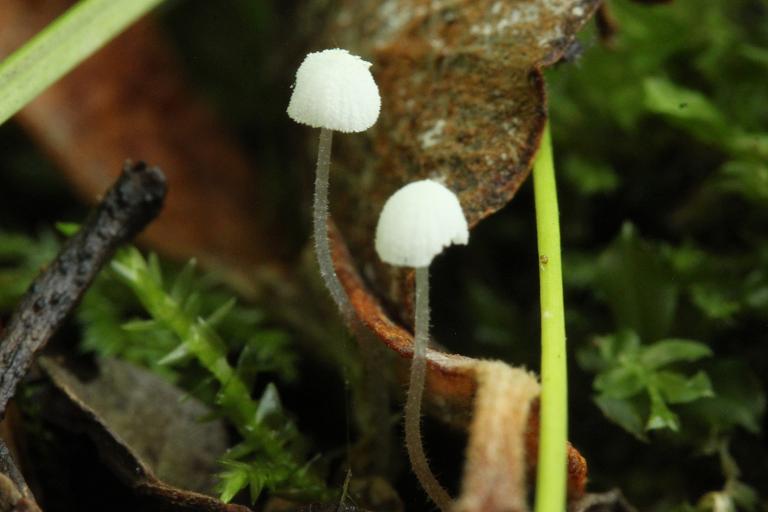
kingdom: Fungi
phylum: Basidiomycota
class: Agaricomycetes
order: Agaricales
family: Mycenaceae
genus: Mycena
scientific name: Mycena tenerrima
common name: pudret huesvamp
